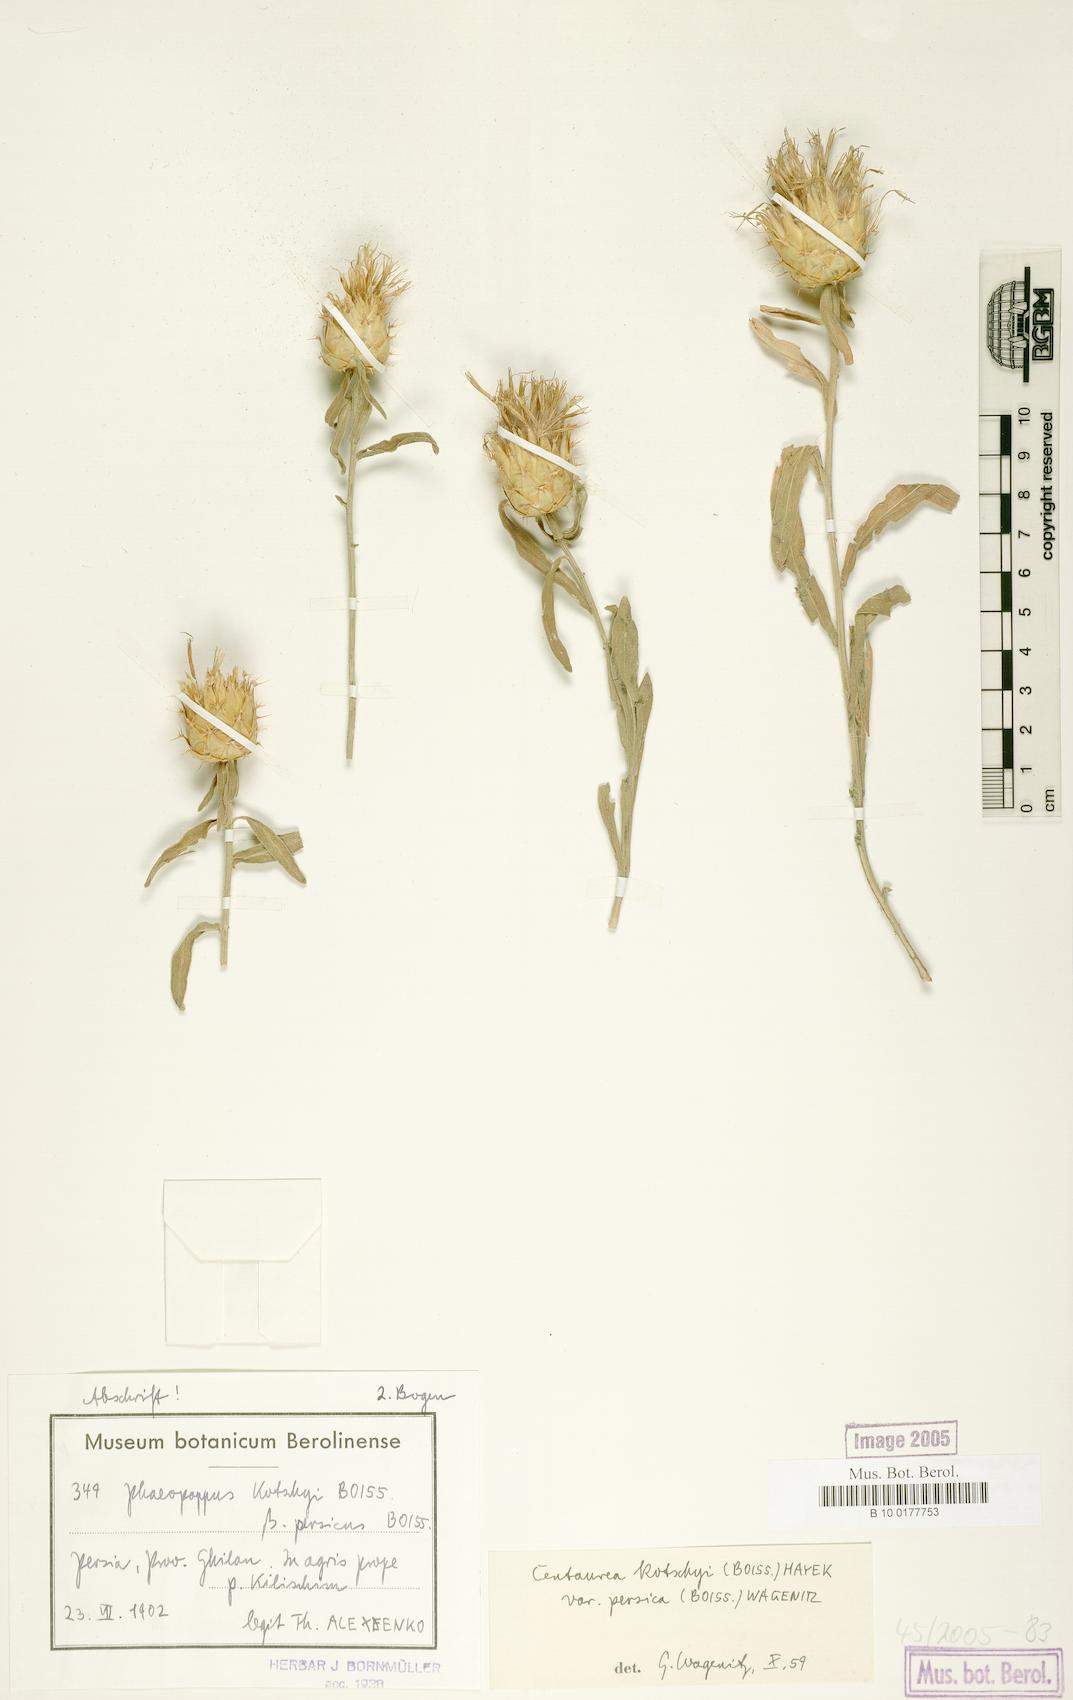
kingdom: Plantae
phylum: Tracheophyta
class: Magnoliopsida
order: Asterales
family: Asteraceae
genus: Centaurea
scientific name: Centaurea kotschyi
